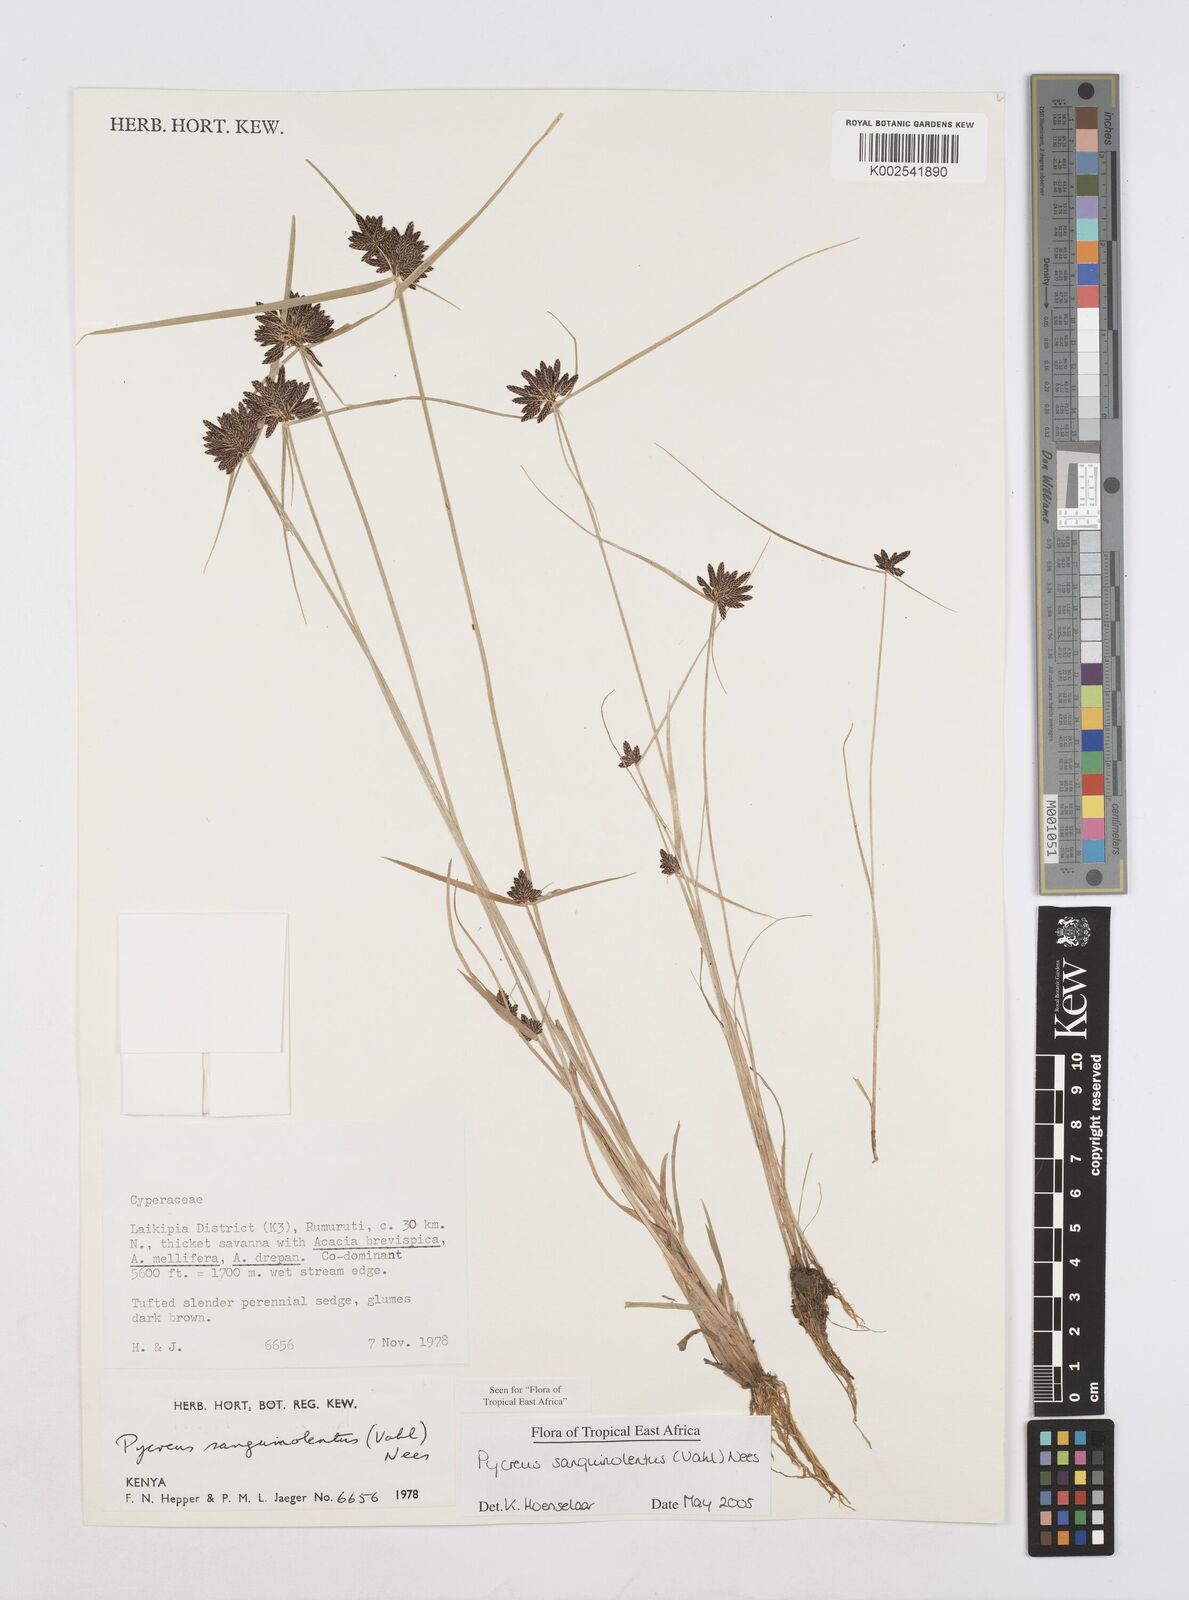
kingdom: Plantae
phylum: Tracheophyta
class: Liliopsida
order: Poales
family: Cyperaceae
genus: Cyperus
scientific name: Cyperus sanguinolentus
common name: Purpleglume flatsedge
